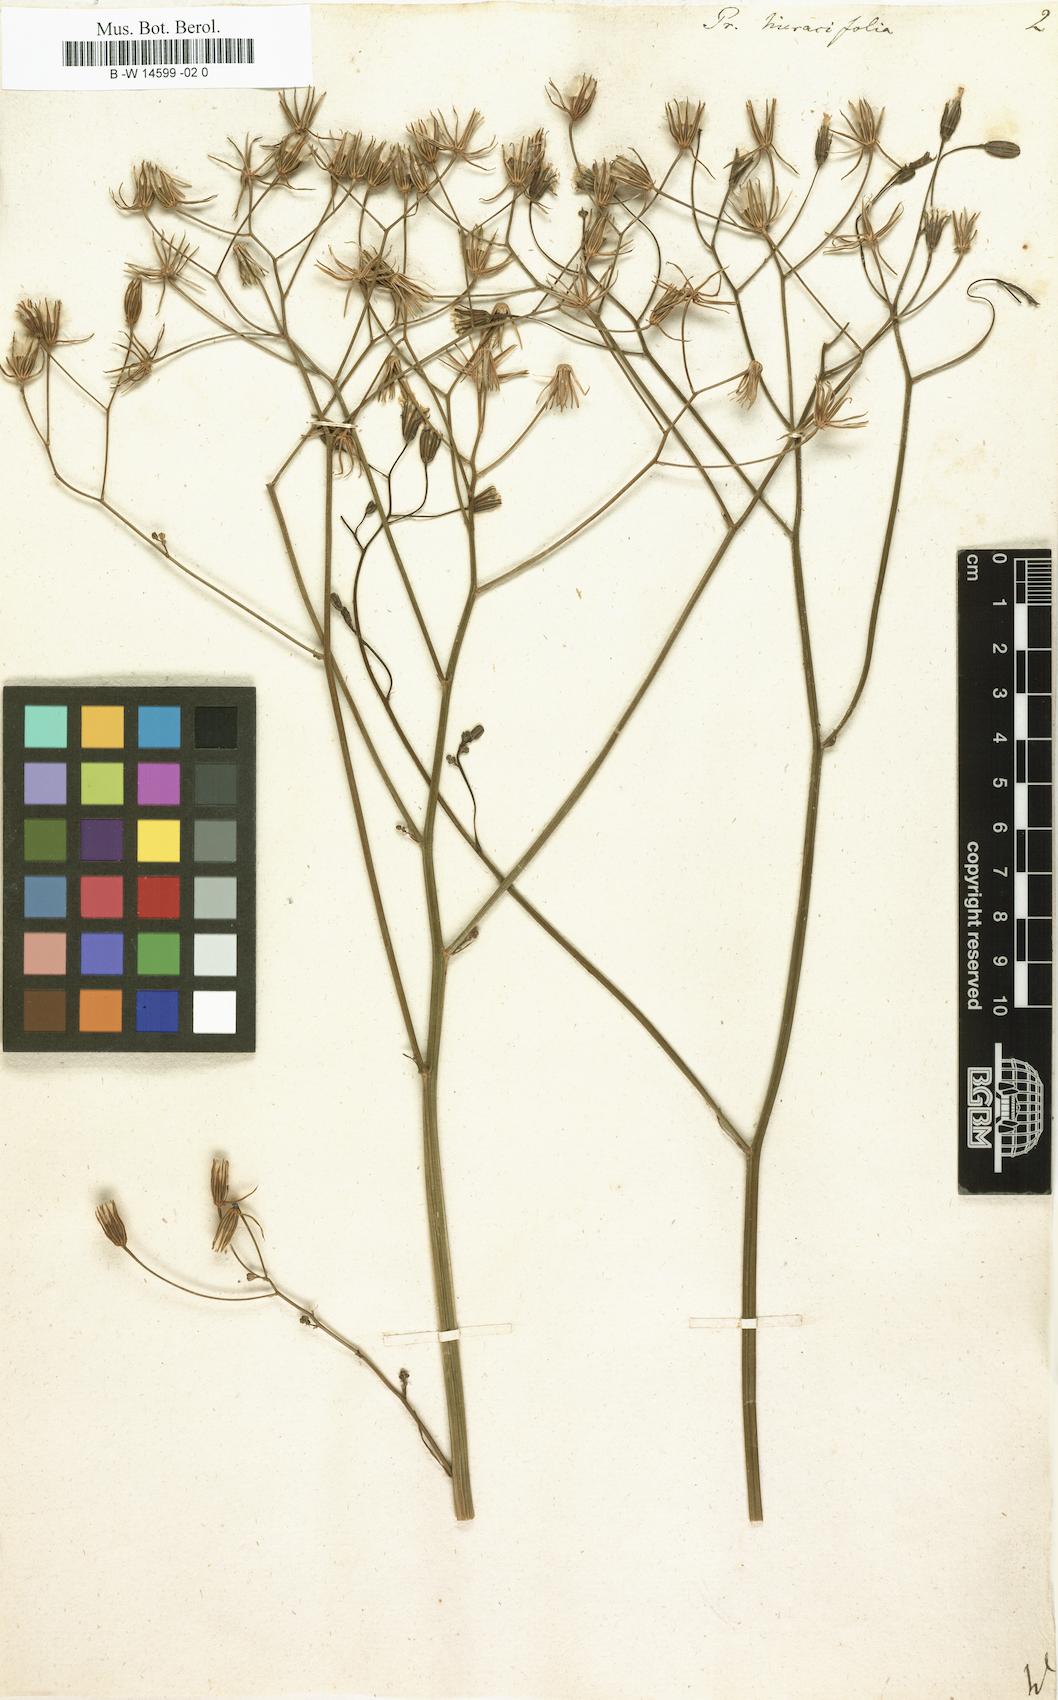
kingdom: Plantae
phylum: Tracheophyta
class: Magnoliopsida
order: Asterales
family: Asteraceae
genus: Crepis
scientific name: Crepis pulchra
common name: Hawk's-beard
